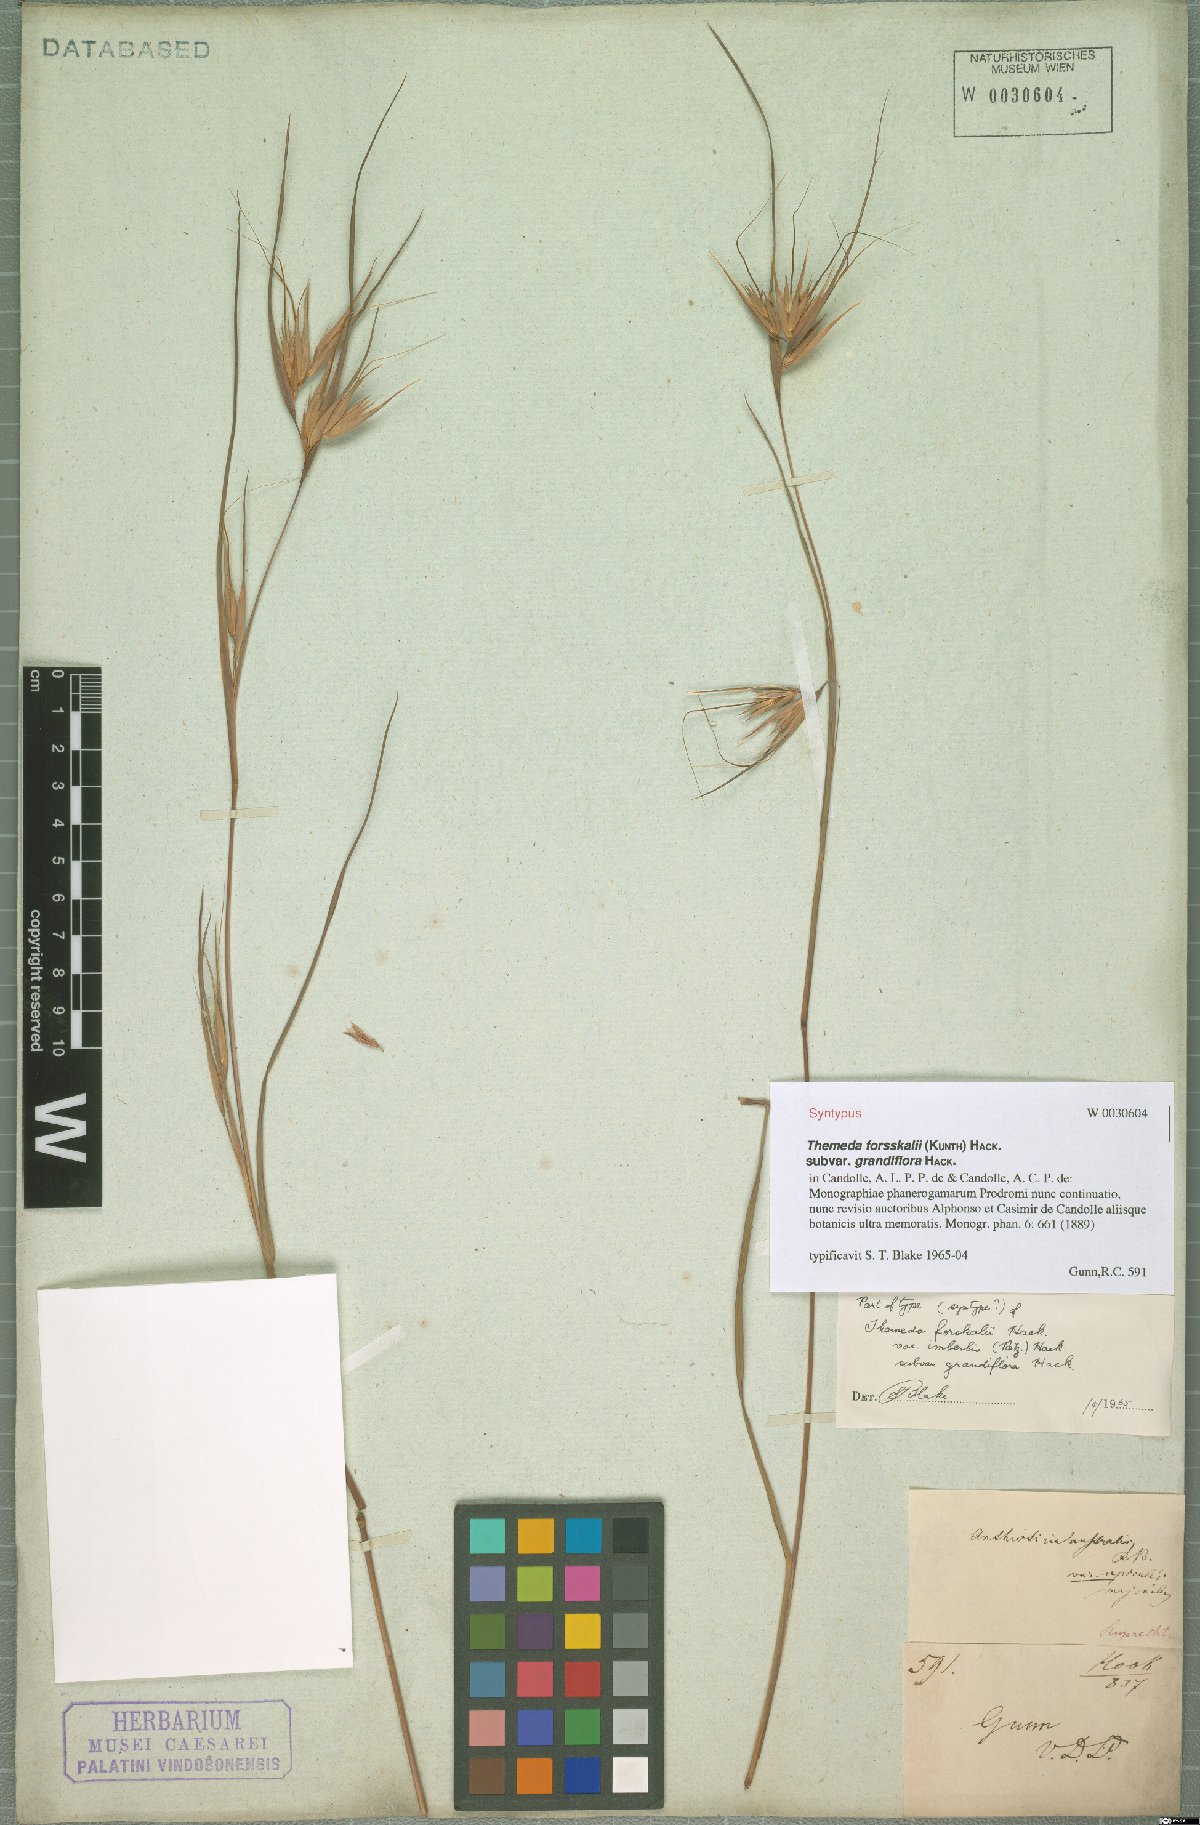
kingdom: Plantae
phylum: Tracheophyta
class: Liliopsida
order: Poales
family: Poaceae
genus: Themeda
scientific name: Themeda triandra
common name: Kangaroo grass
